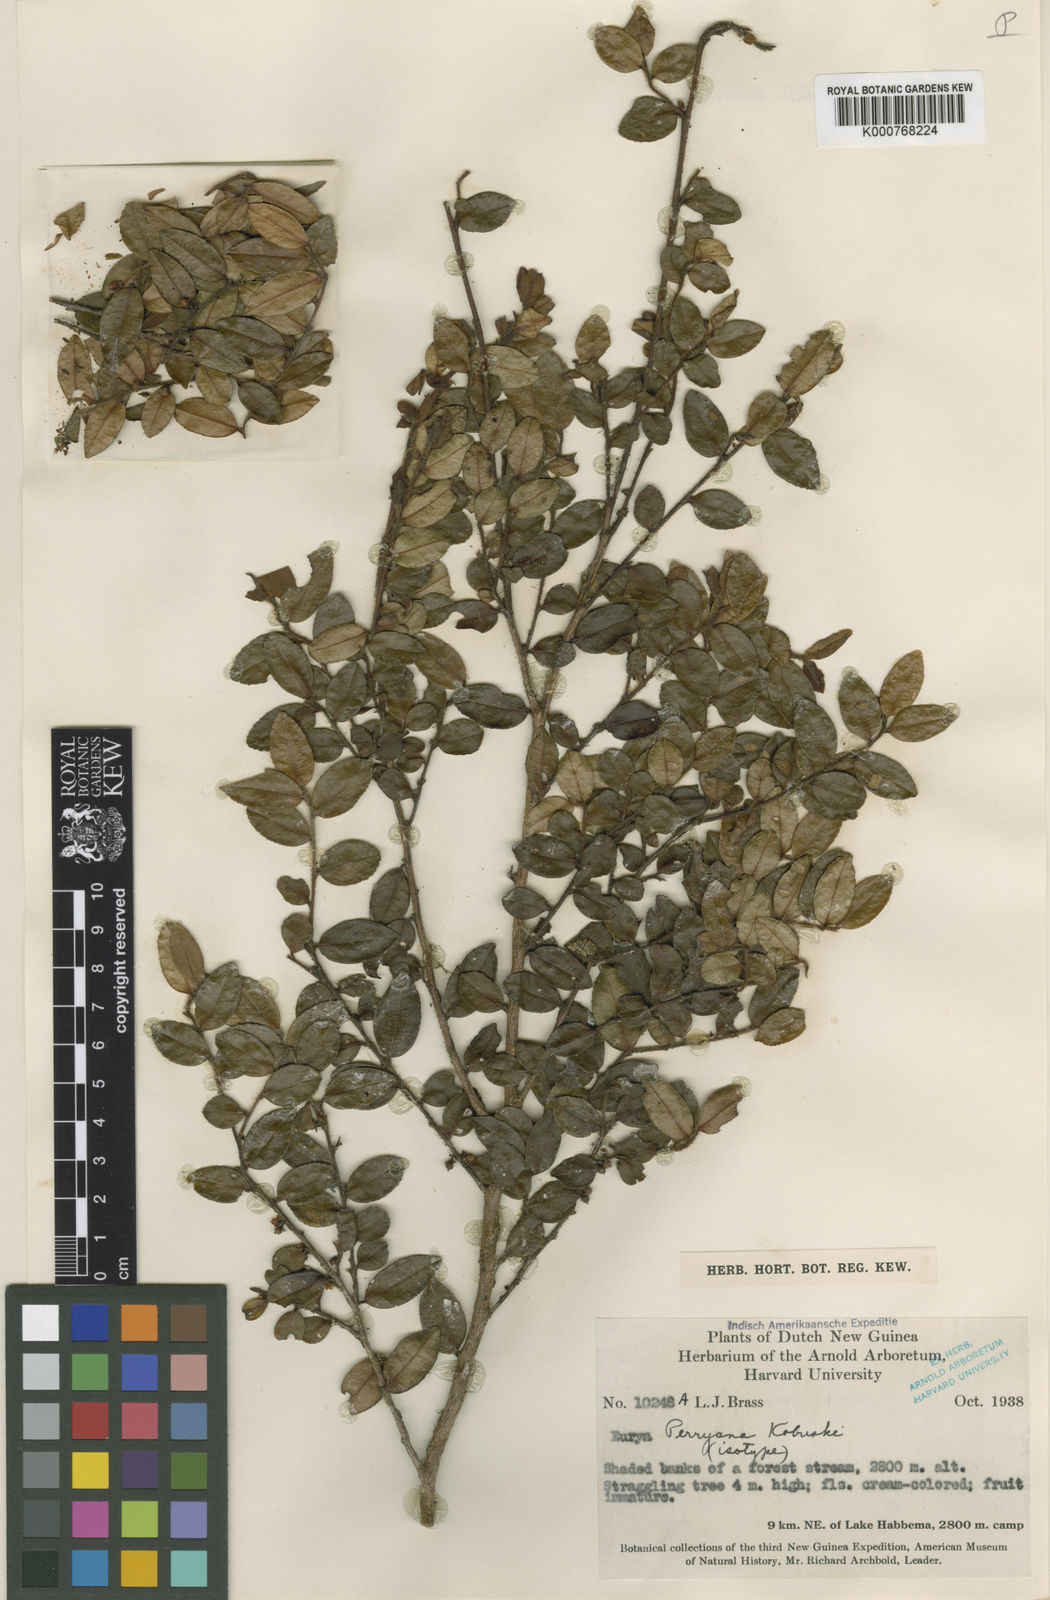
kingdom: Plantae
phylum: Tracheophyta
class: Magnoliopsida
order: Ericales
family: Pentaphylacaceae
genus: Eurya
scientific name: Eurya perryana
